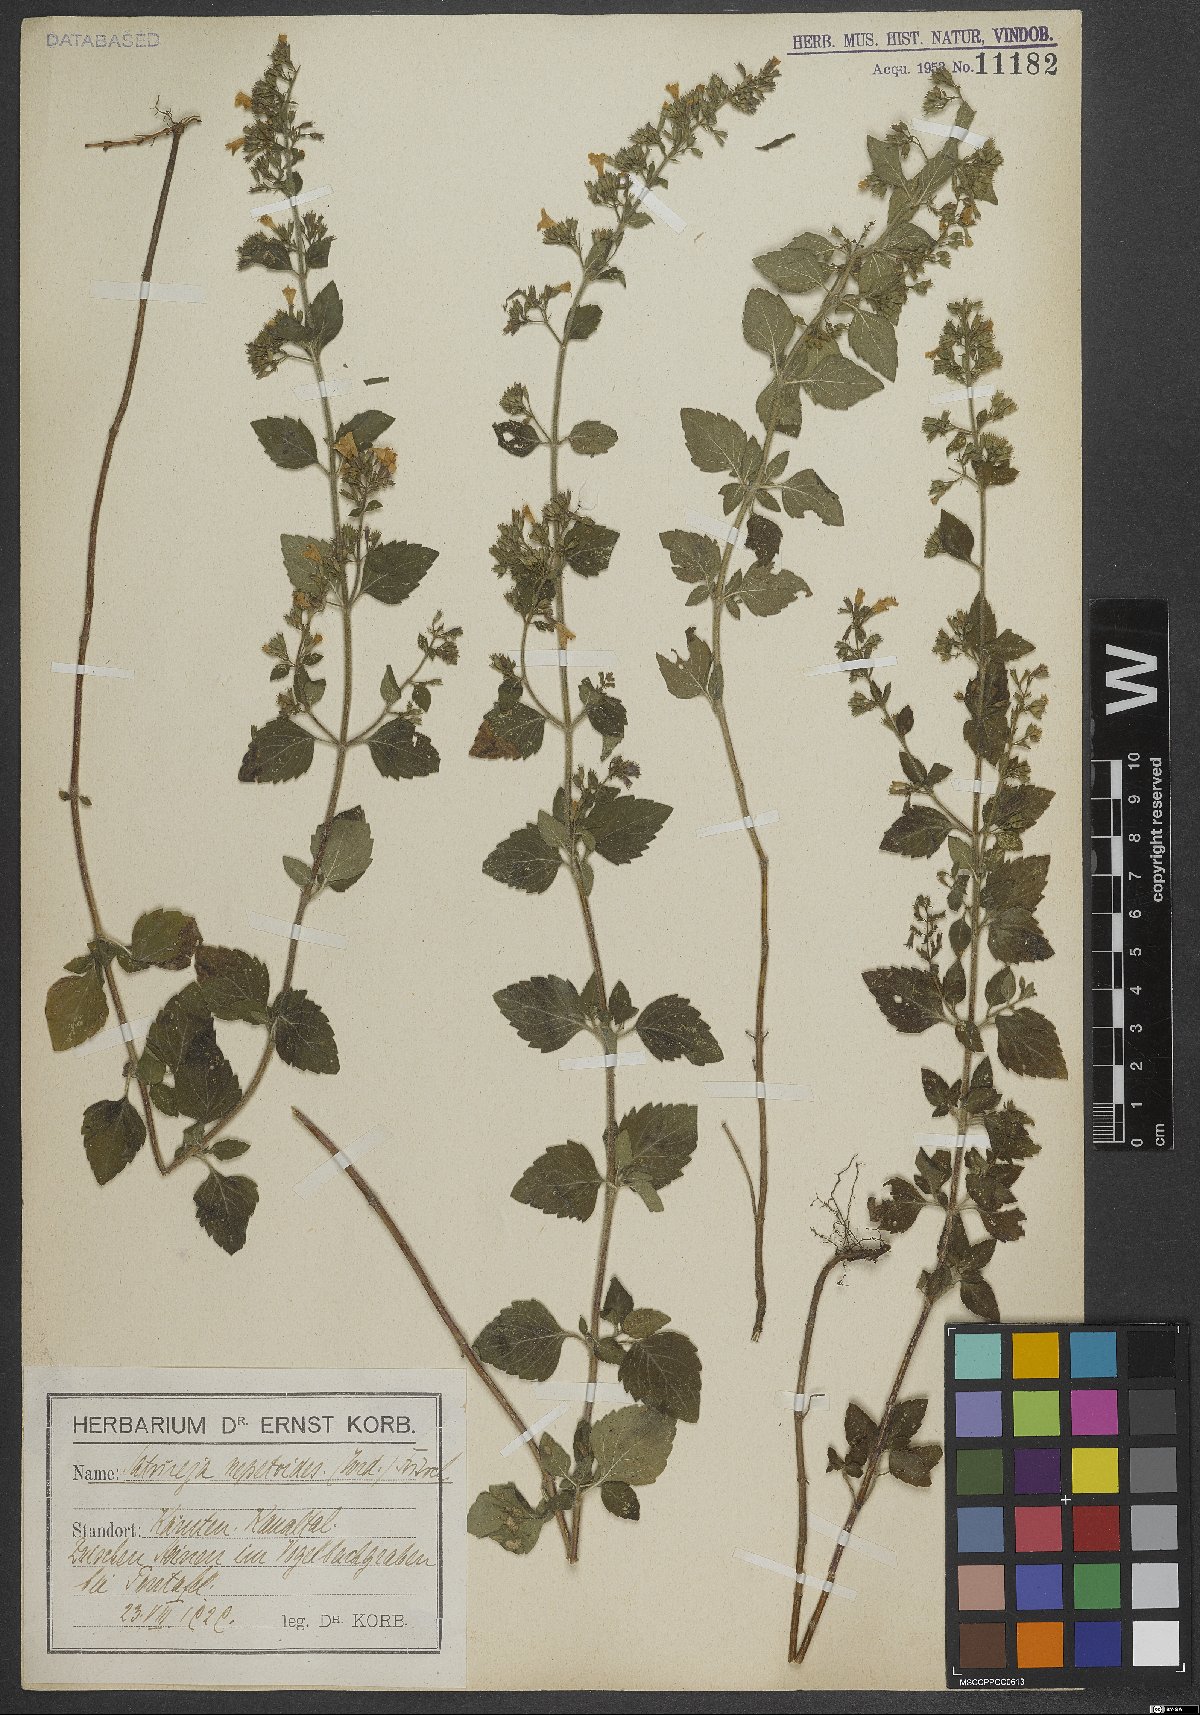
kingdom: Plantae
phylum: Tracheophyta
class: Magnoliopsida
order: Lamiales
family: Lamiaceae
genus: Clinopodium
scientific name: Clinopodium nepeta
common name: Lesser calamint
